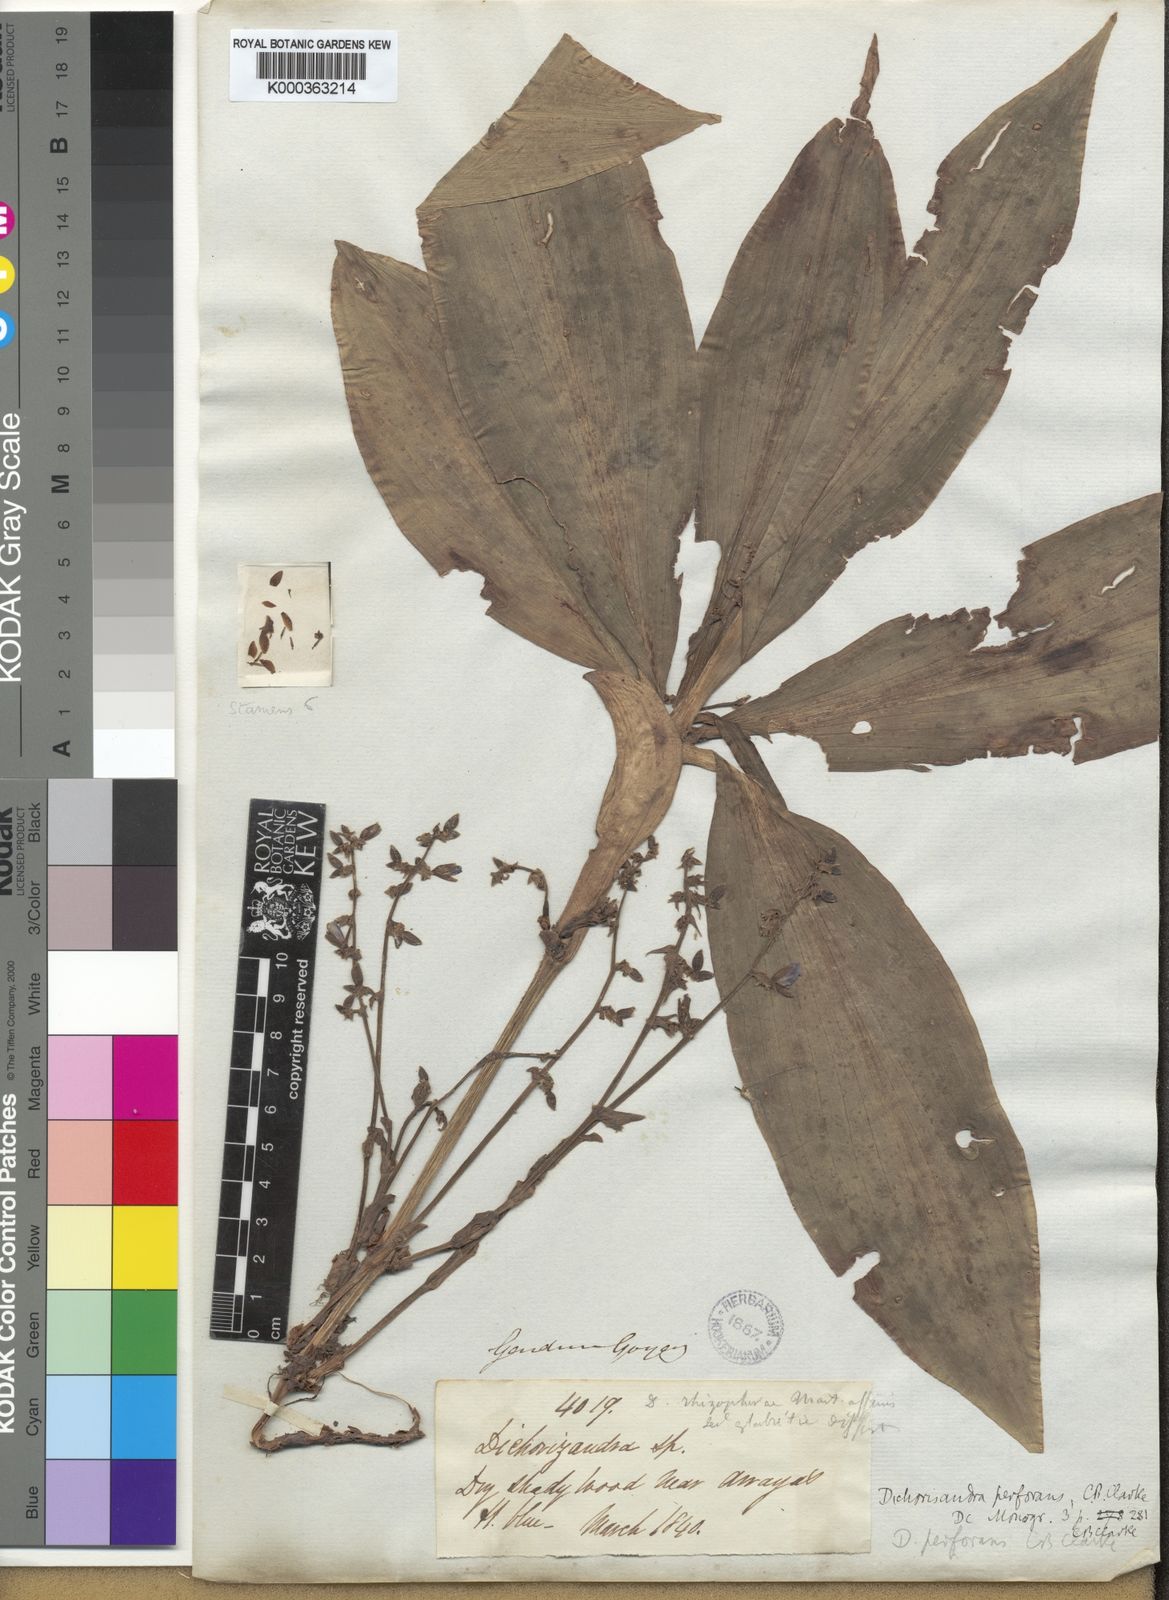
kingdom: Plantae
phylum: Tracheophyta
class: Liliopsida
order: Commelinales
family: Commelinaceae
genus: Dichorisandra
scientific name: Dichorisandra
